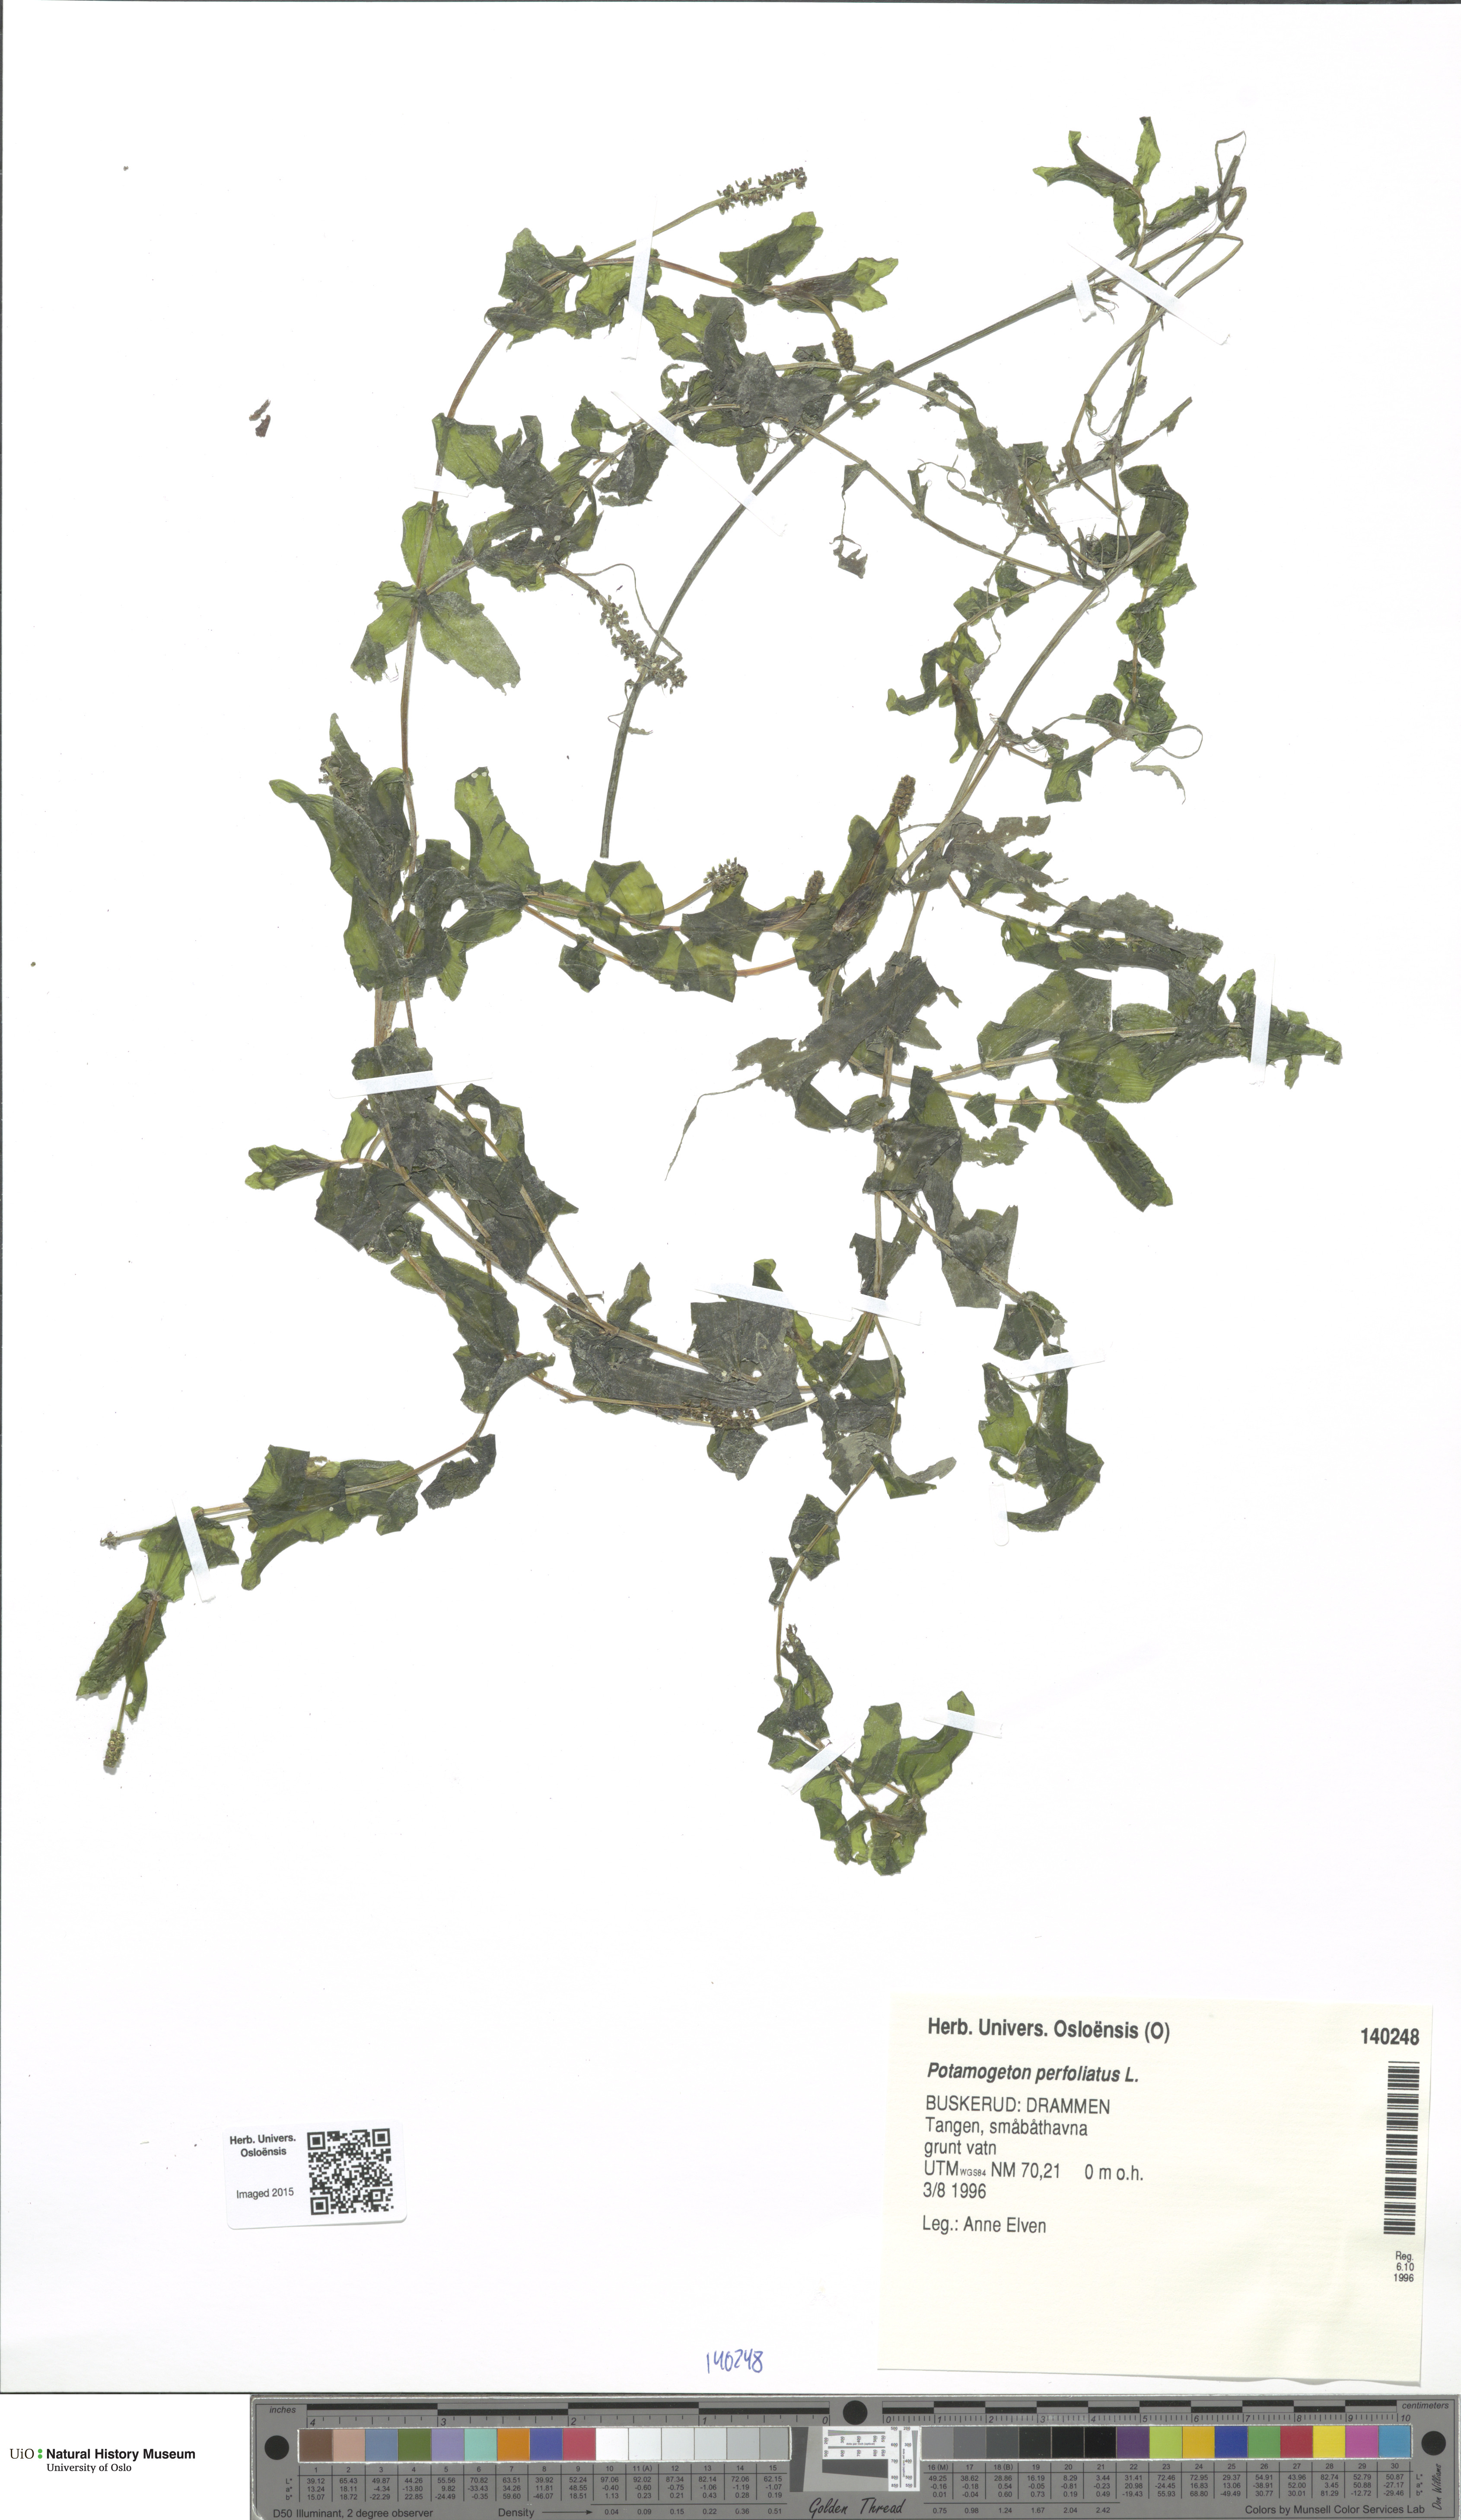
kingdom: Plantae
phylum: Tracheophyta
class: Liliopsida
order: Alismatales
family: Potamogetonaceae
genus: Potamogeton
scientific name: Potamogeton perfoliatus
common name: Perfoliate pondweed
